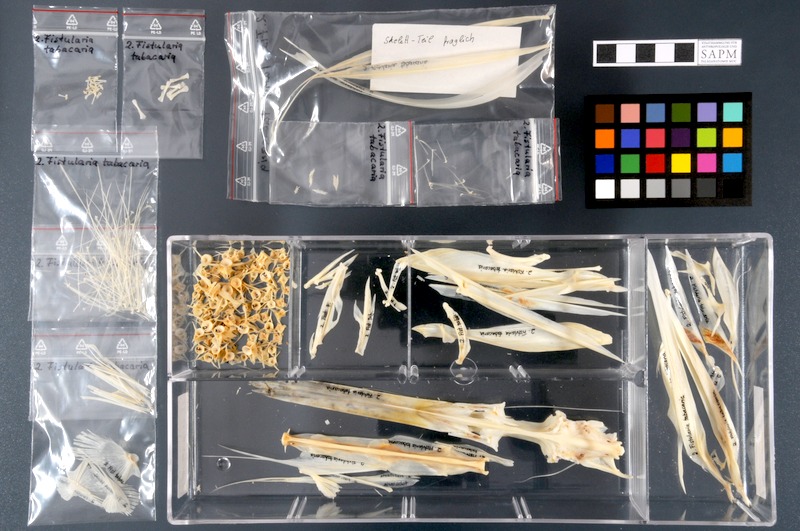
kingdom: Animalia
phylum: Chordata
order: Syngnathiformes
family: Fistulariidae
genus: Fistularia
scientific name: Fistularia tabacaria
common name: Blue-spotted cornetfish
